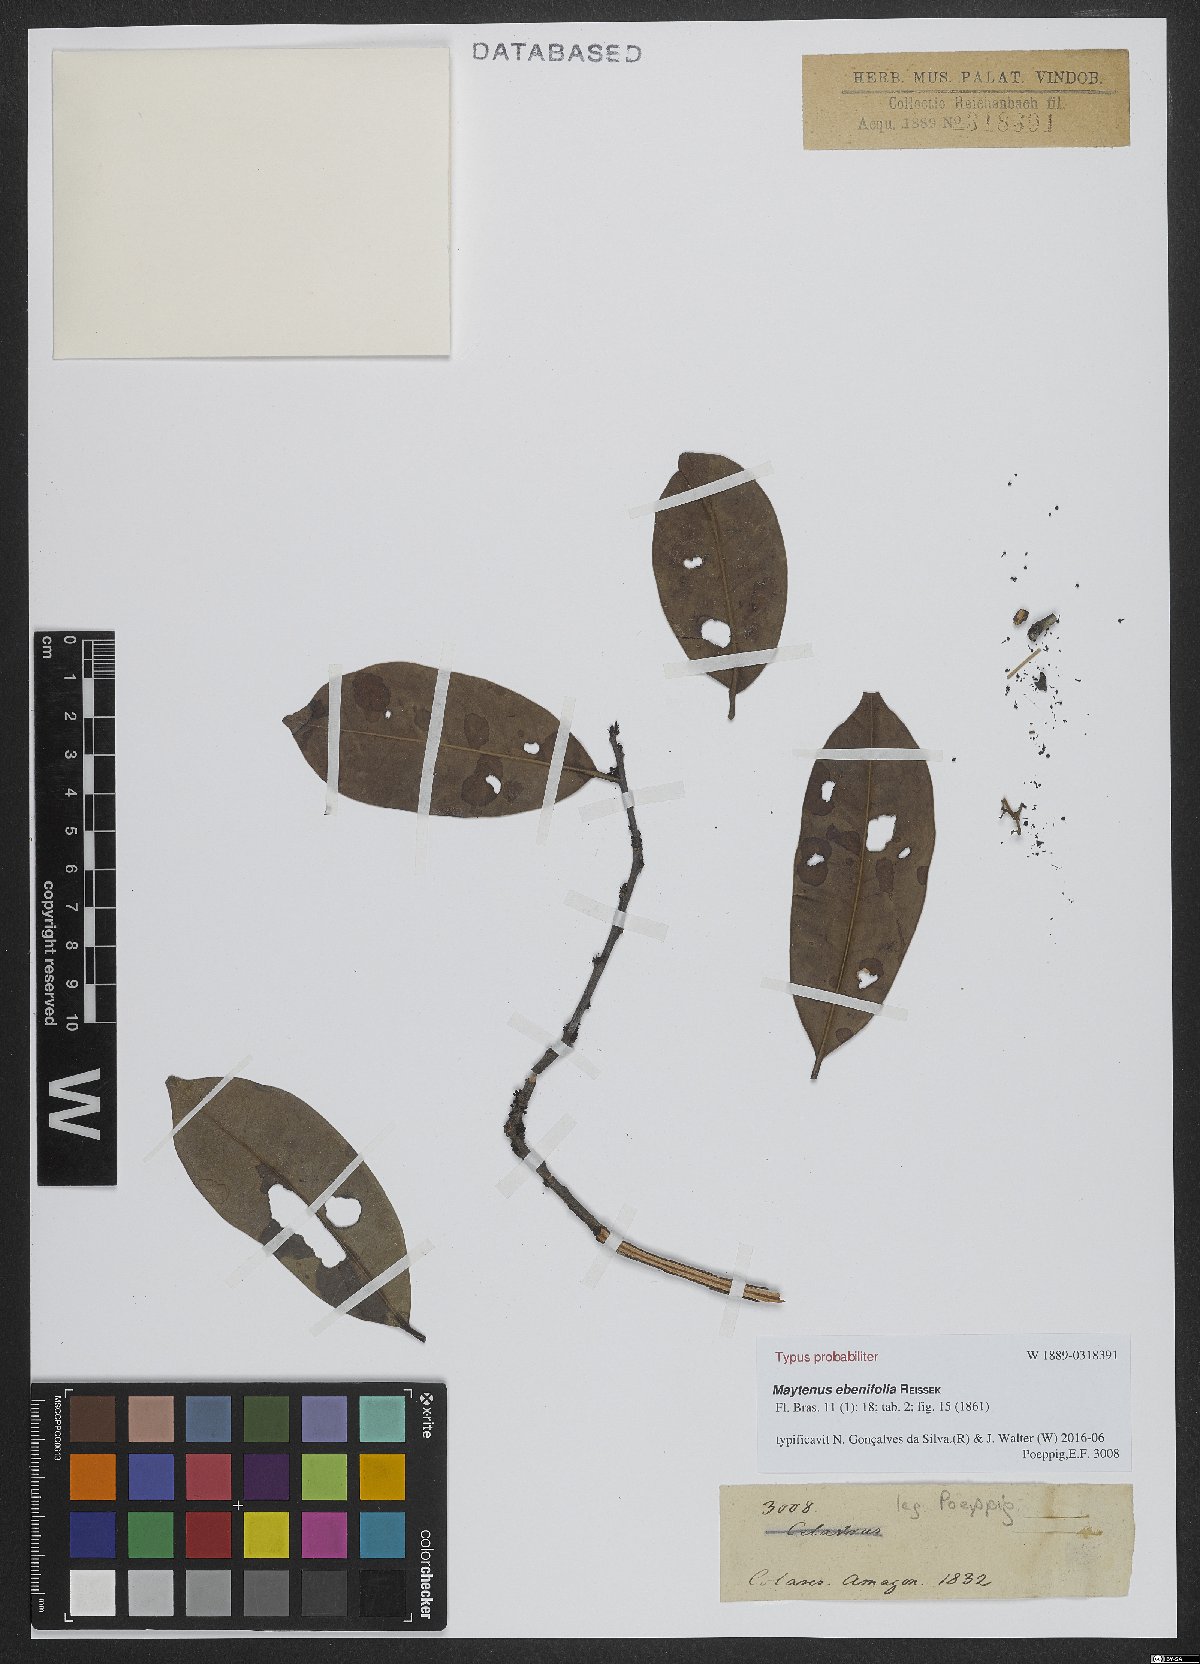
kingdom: Plantae
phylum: Tracheophyta
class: Magnoliopsida
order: Celastrales
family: Celastraceae
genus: Monteverdia
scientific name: Monteverdia ebenifolia
